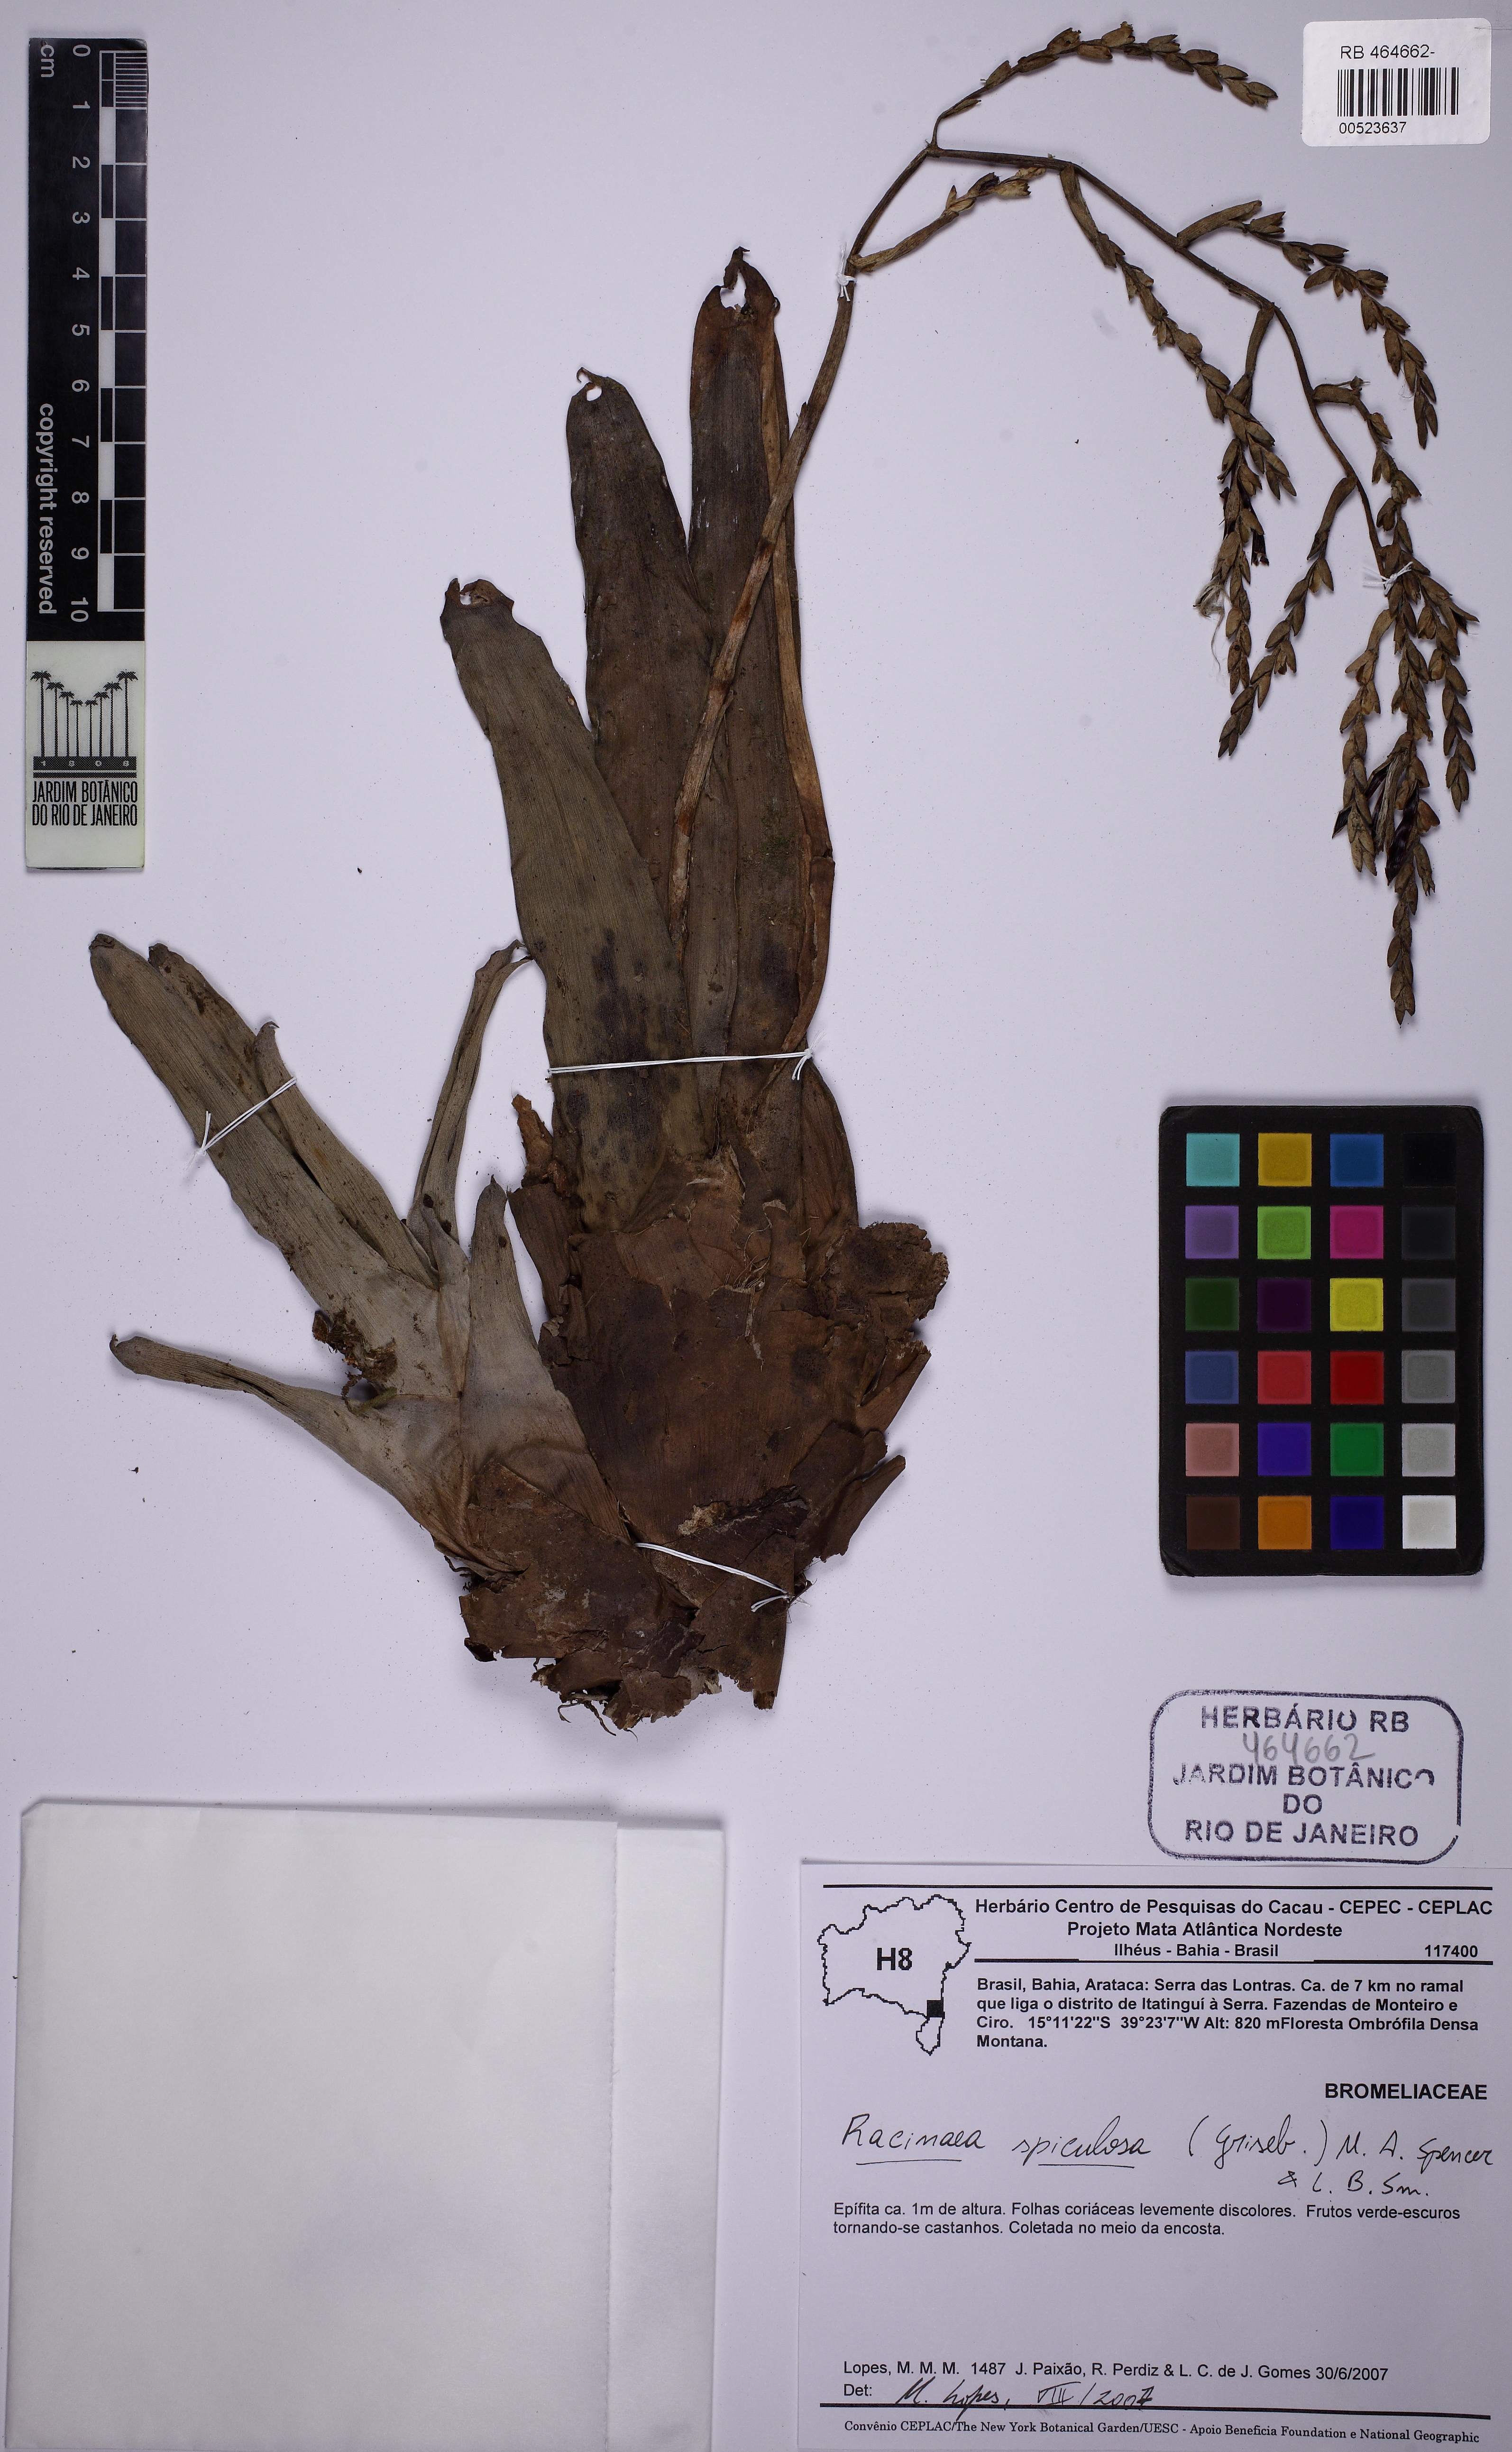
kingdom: Plantae
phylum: Tracheophyta
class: Liliopsida
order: Poales
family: Bromeliaceae
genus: Racinaea
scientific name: Racinaea spiculosa
